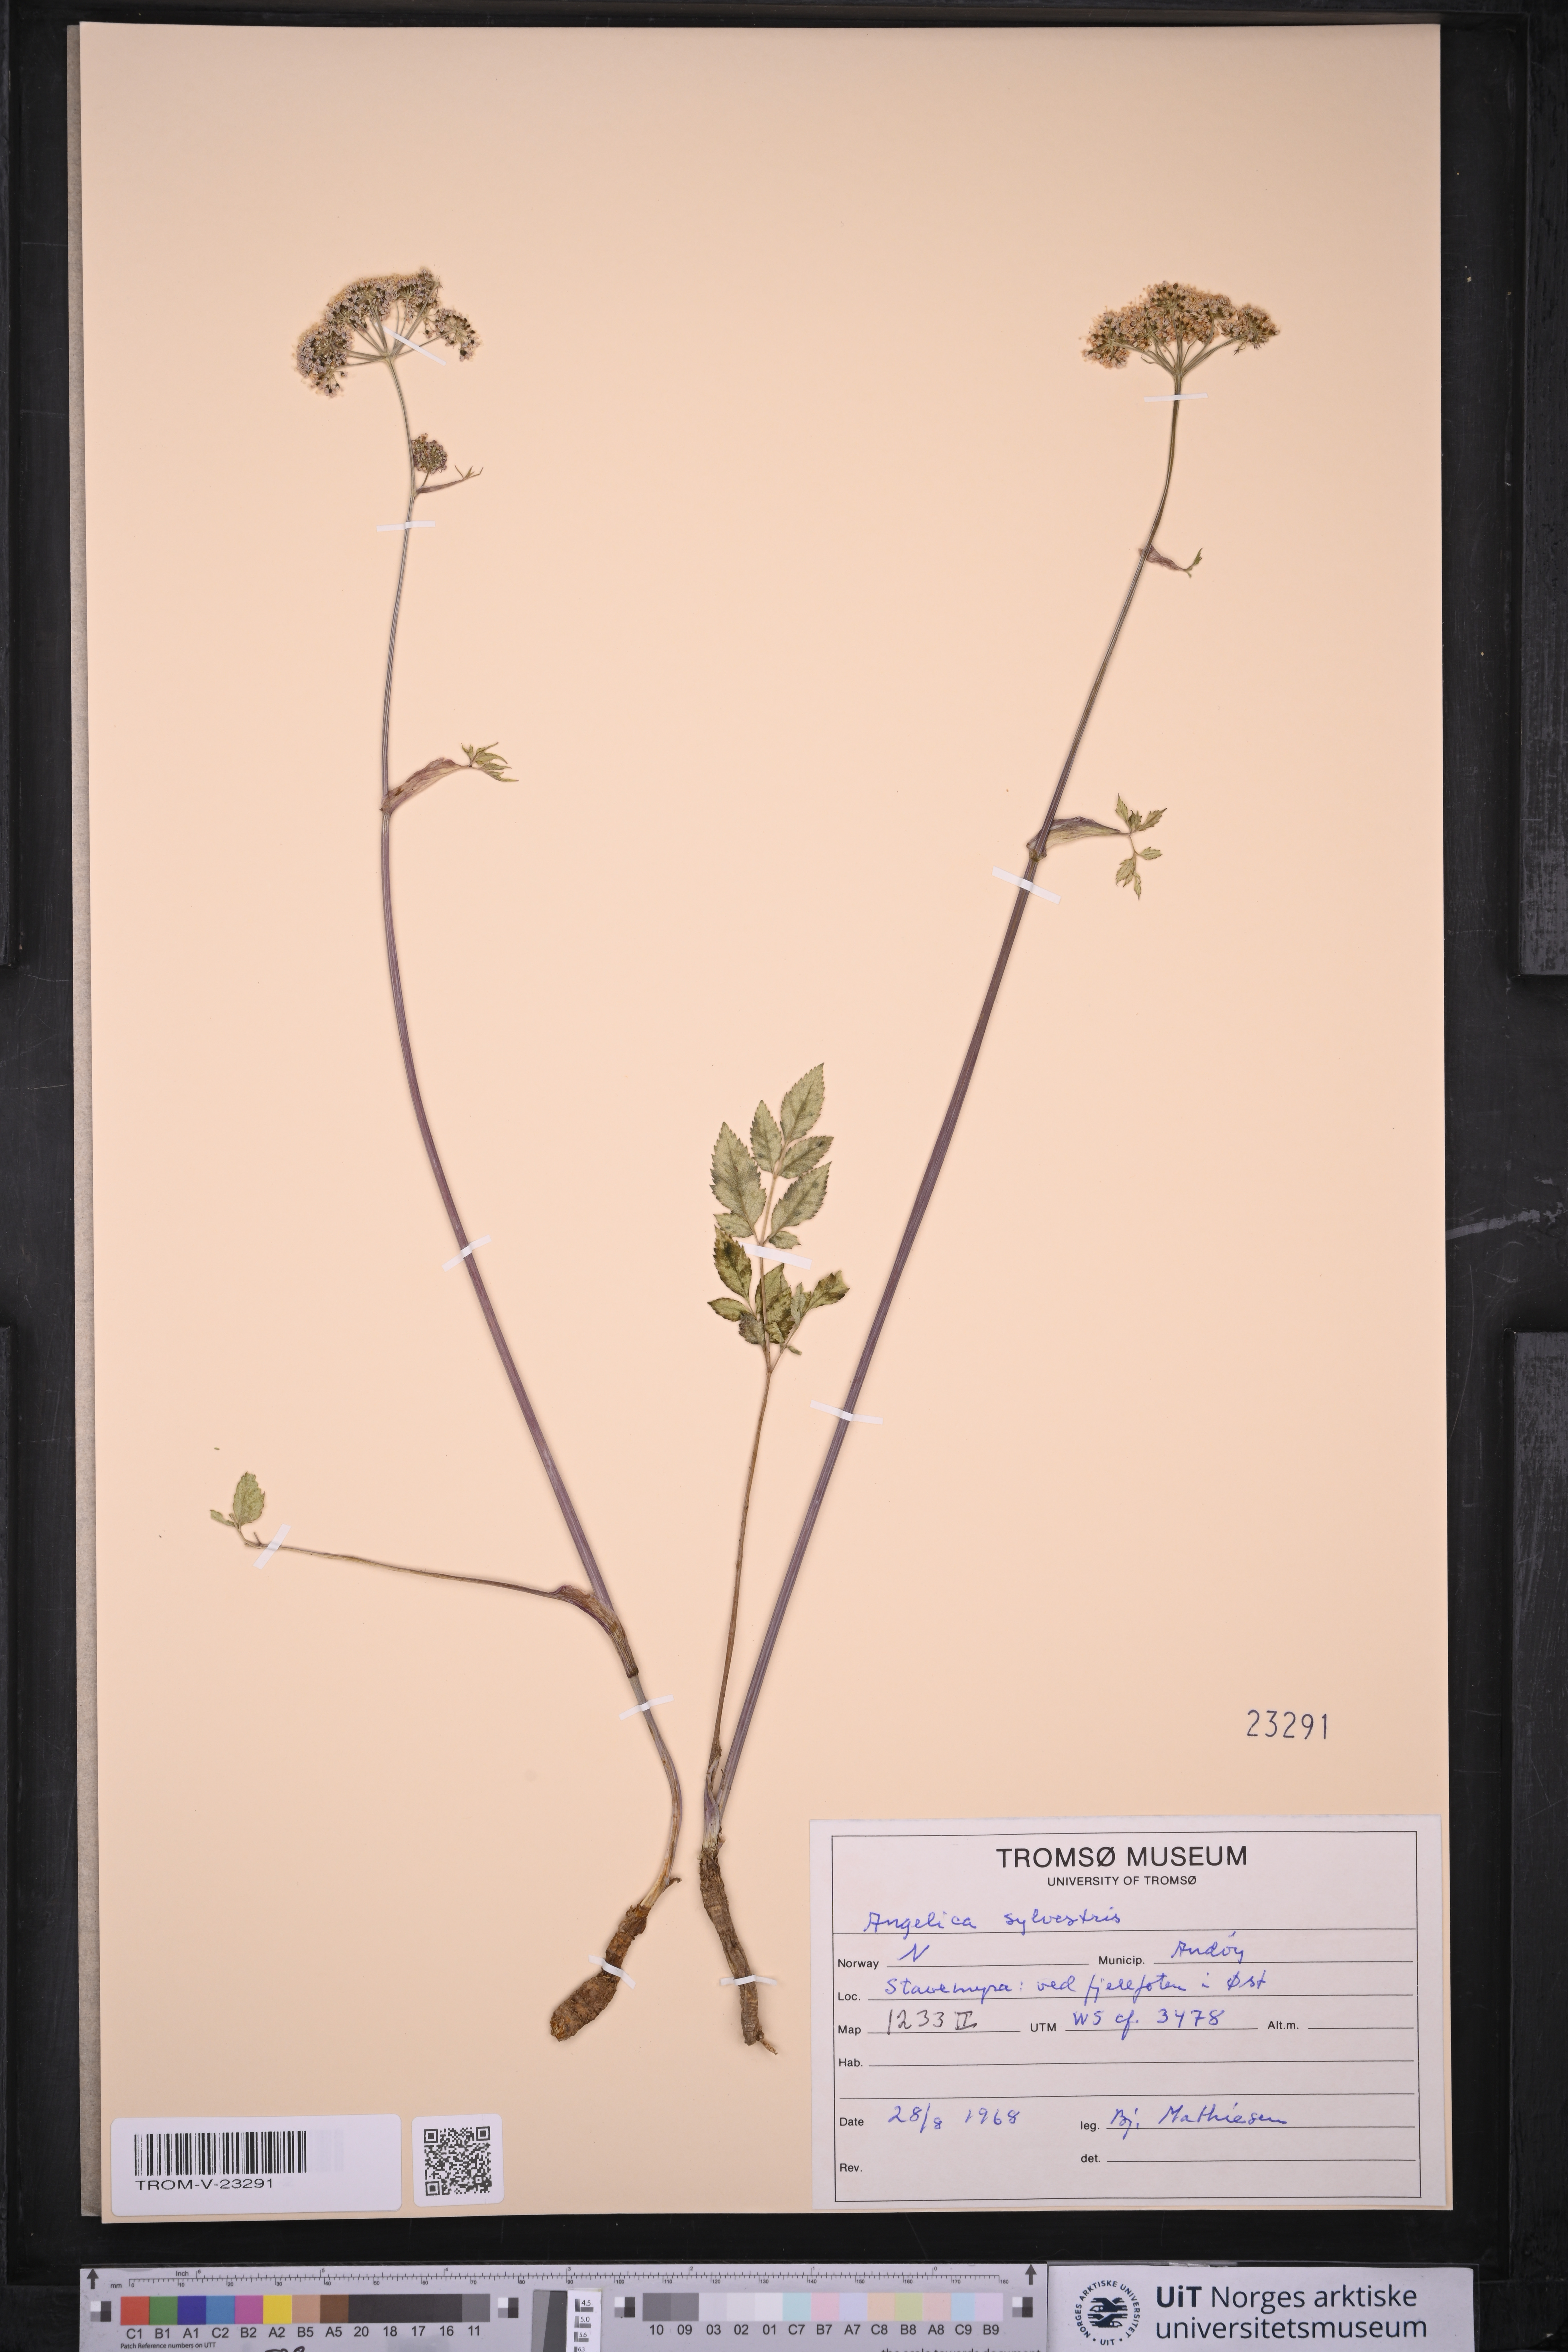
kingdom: Plantae
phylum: Tracheophyta
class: Magnoliopsida
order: Apiales
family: Apiaceae
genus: Angelica
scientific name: Angelica sylvestris
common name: Wild angelica
